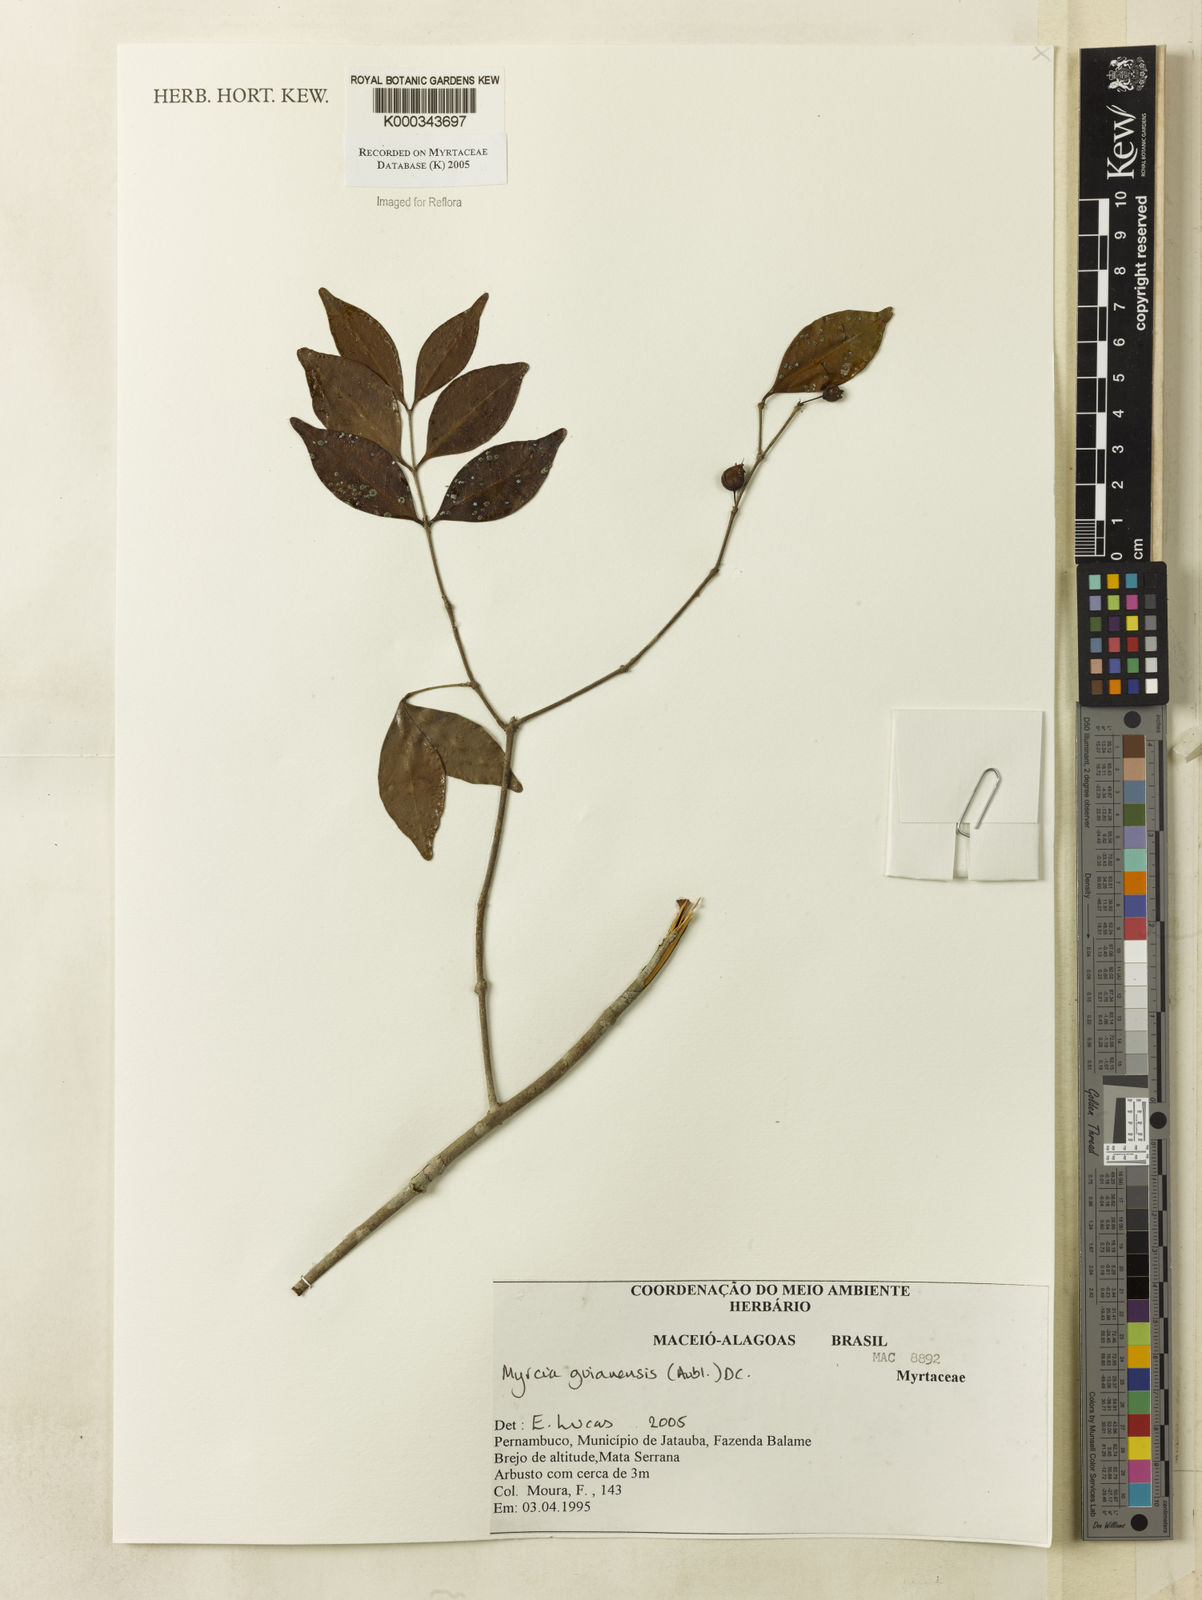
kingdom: Plantae
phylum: Tracheophyta
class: Magnoliopsida
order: Myrtales
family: Myrtaceae
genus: Myrcia
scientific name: Myrcia guianensis
